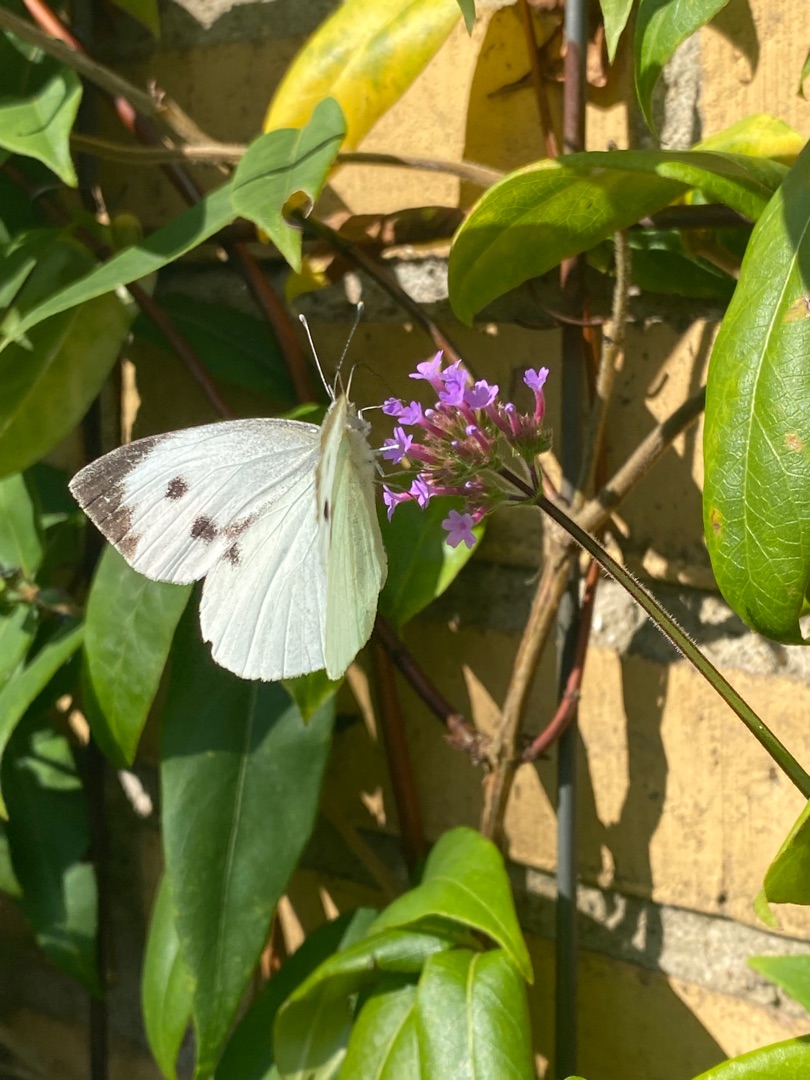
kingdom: Animalia
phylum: Arthropoda
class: Insecta
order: Lepidoptera
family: Pieridae
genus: Pieris
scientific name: Pieris brassicae
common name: Stor kålsommerfugl
